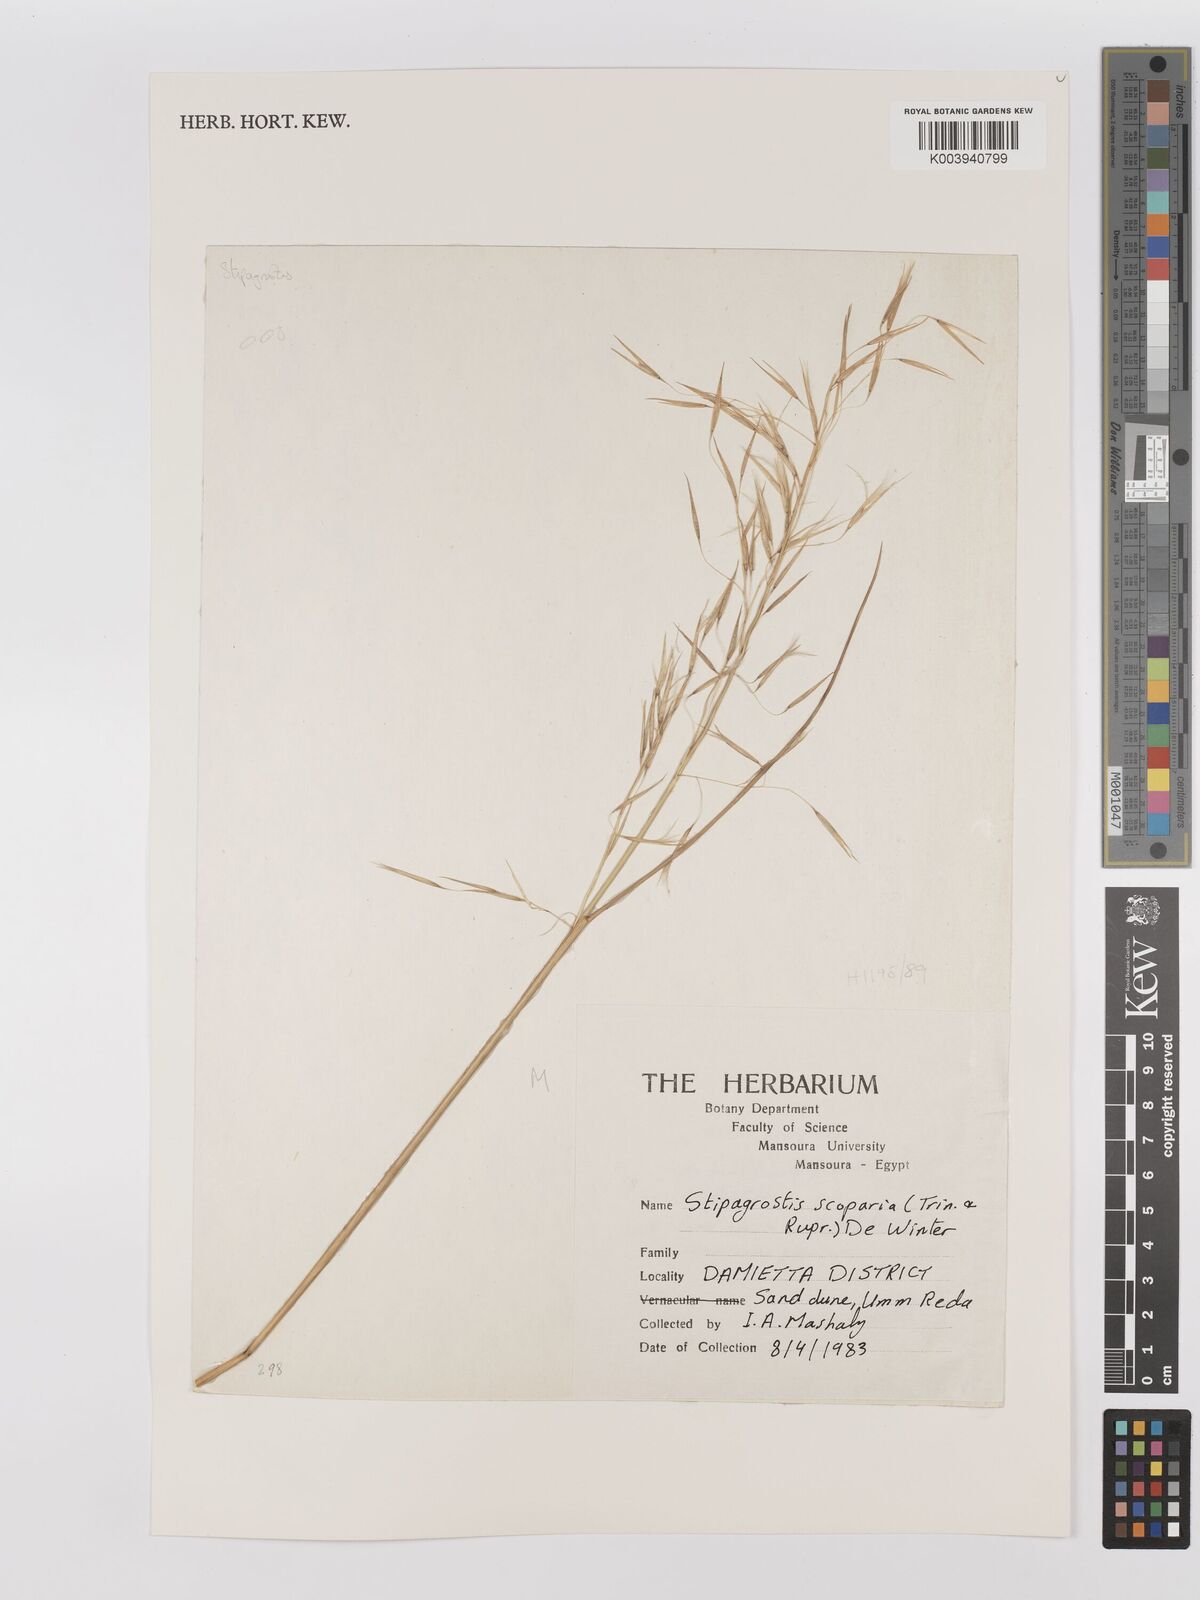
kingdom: Plantae
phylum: Tracheophyta
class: Liliopsida
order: Poales
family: Poaceae
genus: Stipagrostis
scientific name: Stipagrostis scoparia
